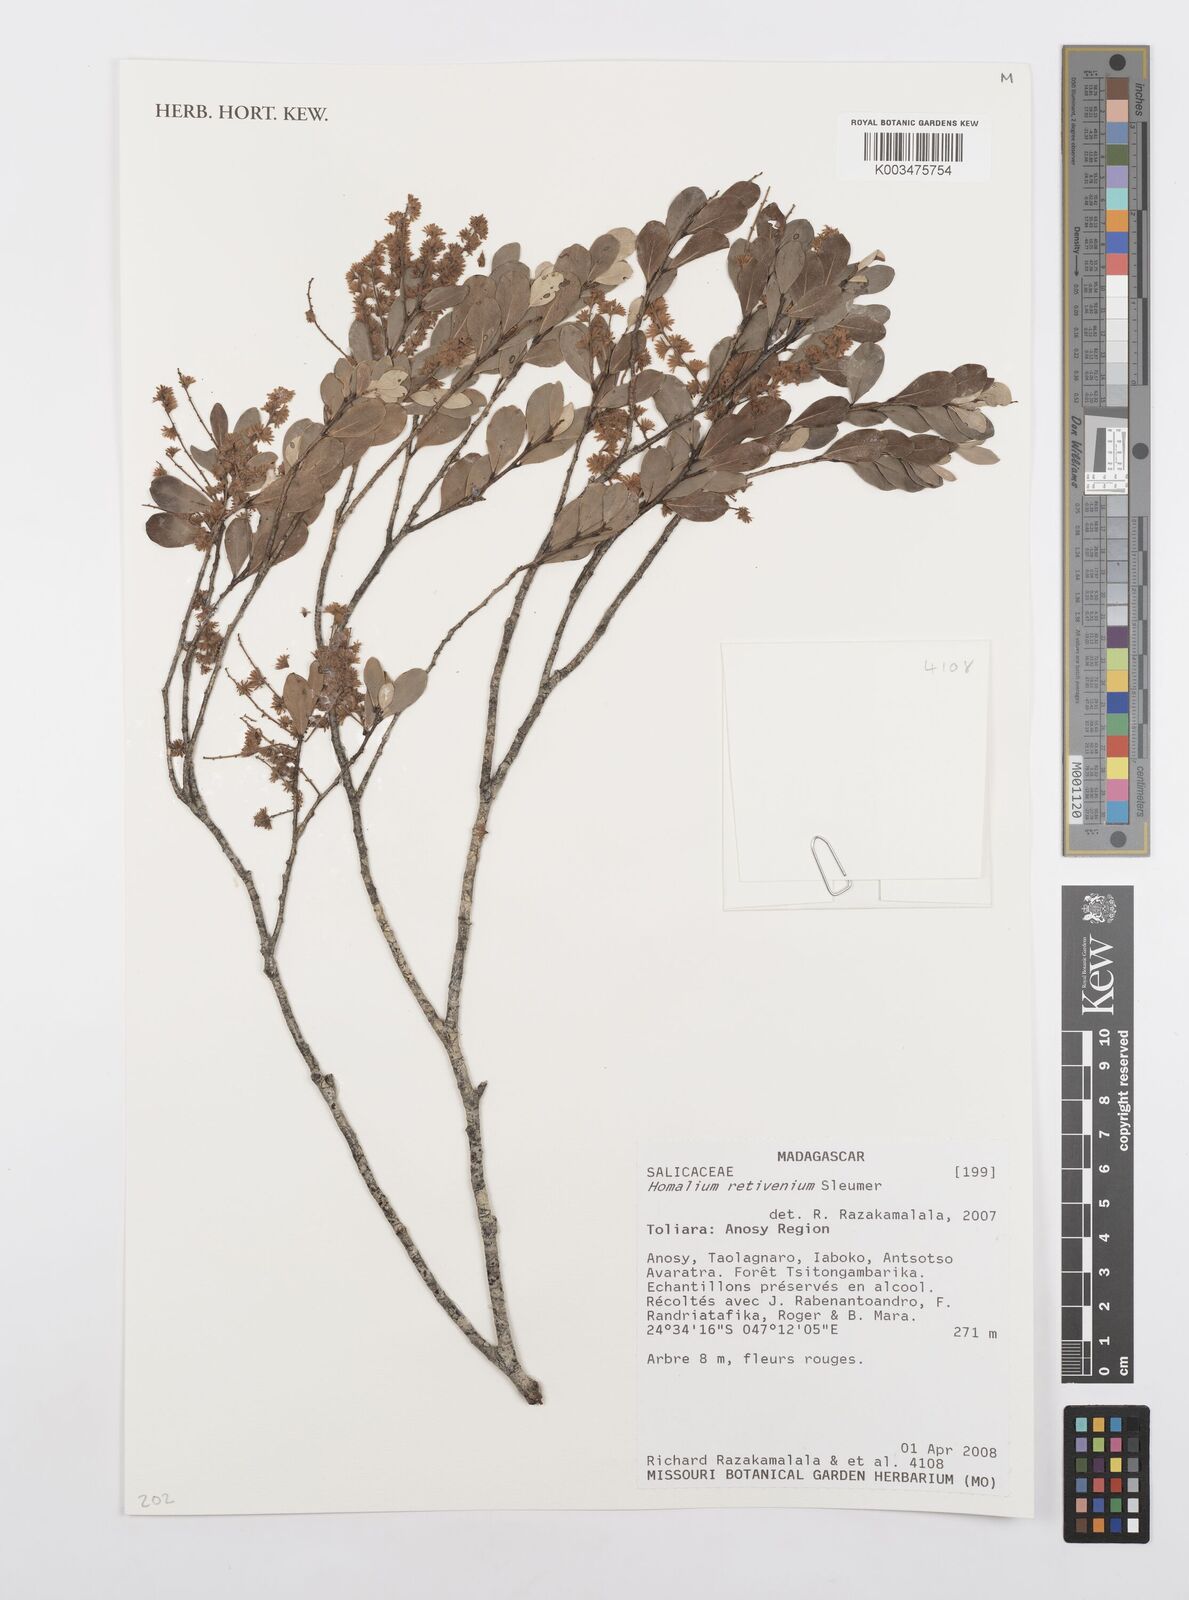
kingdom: Plantae
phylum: Tracheophyta
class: Magnoliopsida
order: Malpighiales
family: Salicaceae
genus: Homalium
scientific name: Homalium retivenium
